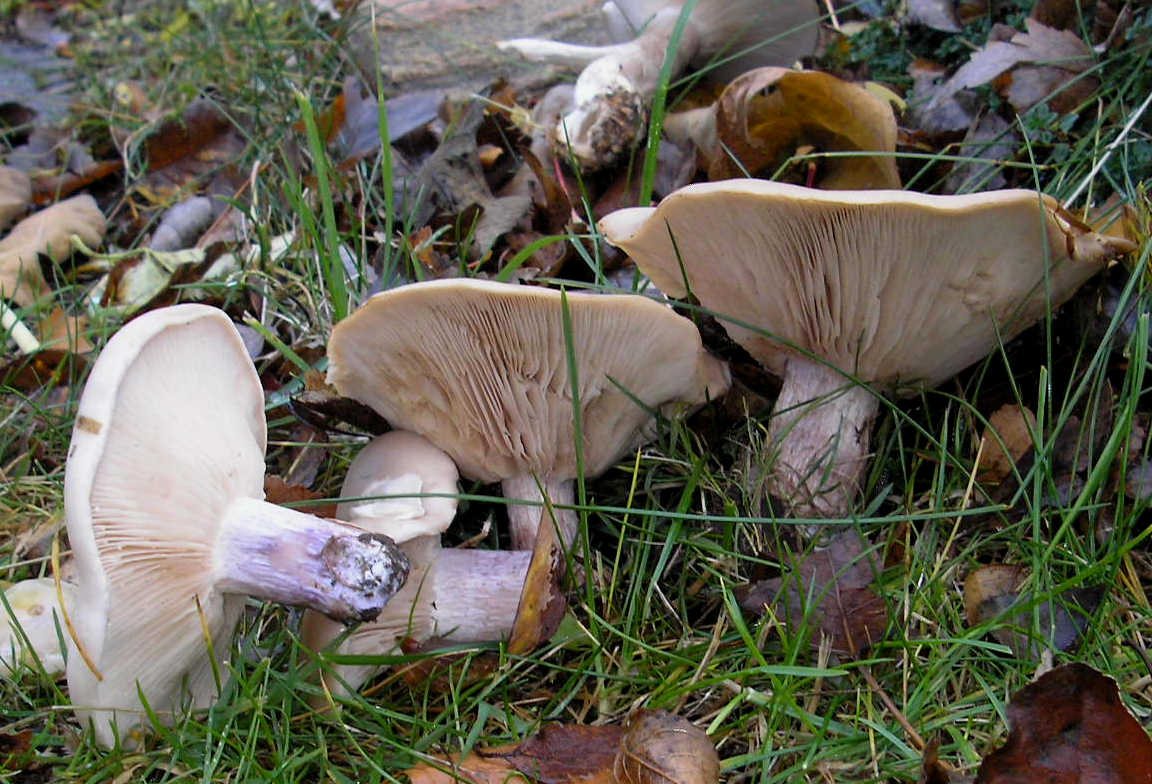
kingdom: Fungi
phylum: Basidiomycota
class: Agaricomycetes
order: Agaricales
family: Tricholomataceae
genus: Lepista
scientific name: Lepista personata
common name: bleg hekseringshat
